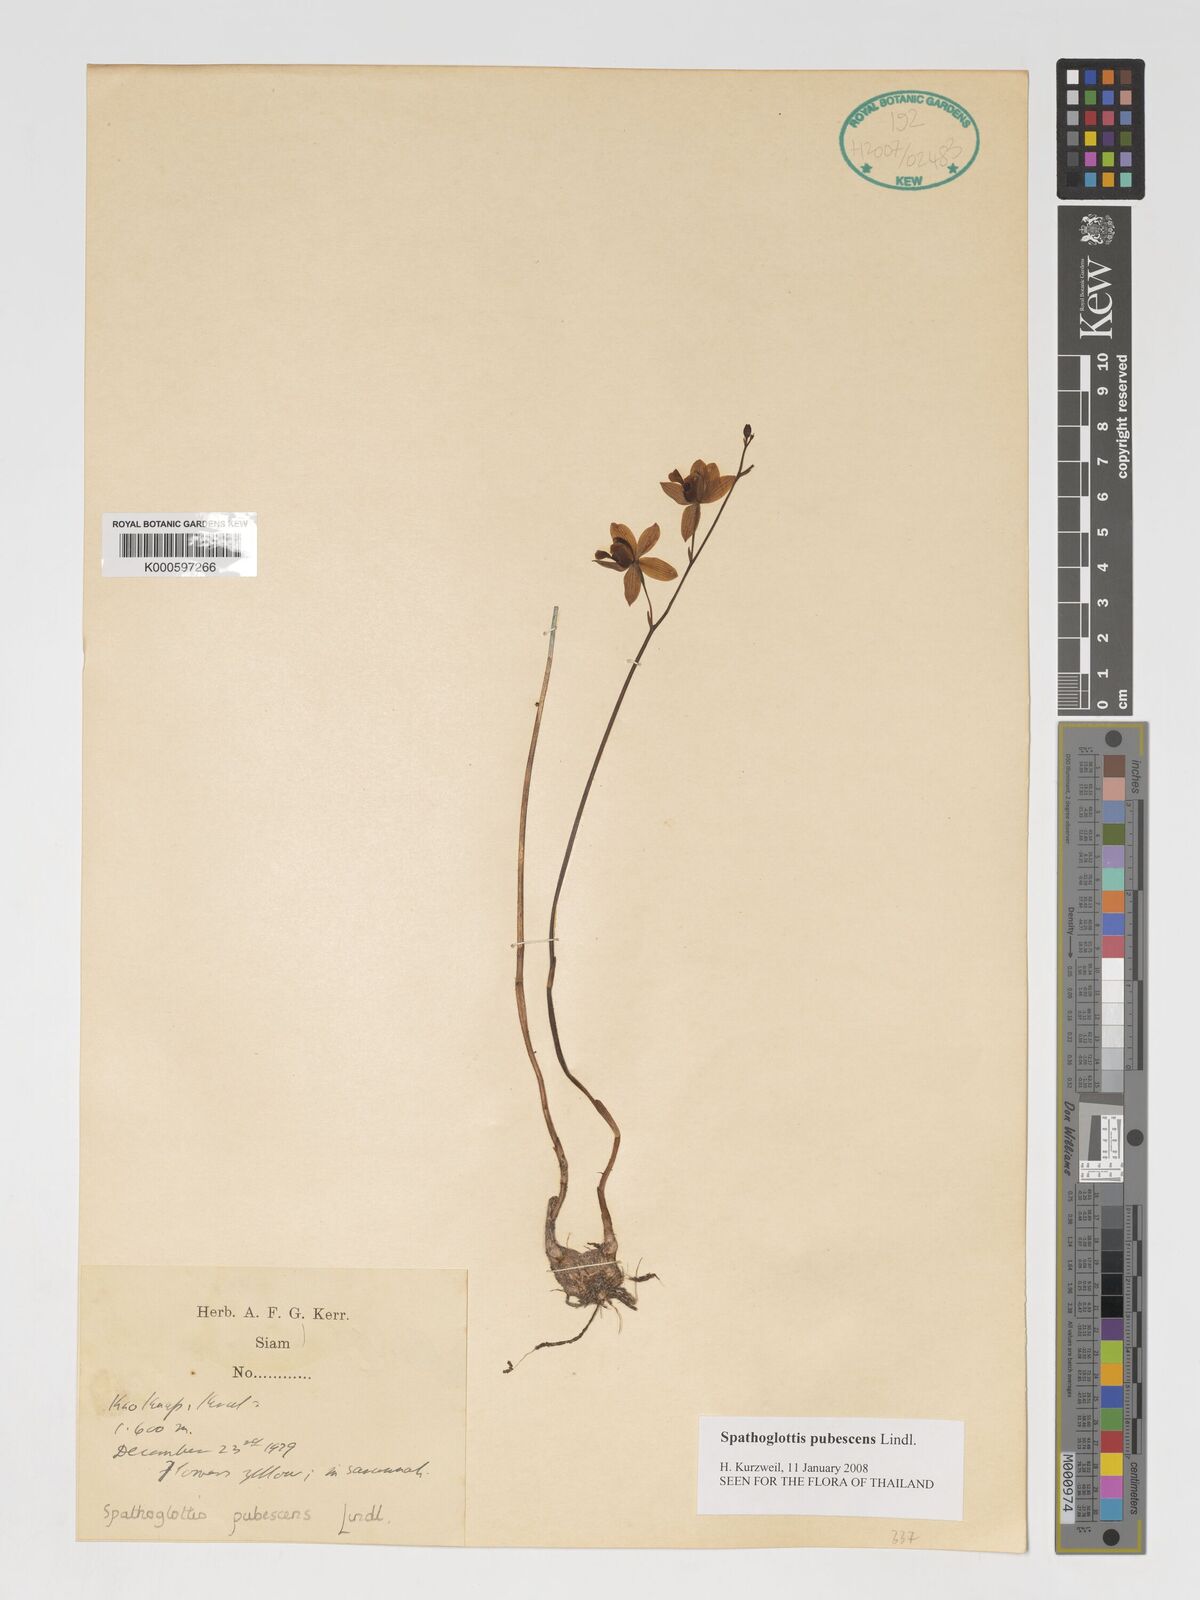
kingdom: Plantae
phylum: Tracheophyta
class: Liliopsida
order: Asparagales
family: Orchidaceae
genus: Spathoglottis
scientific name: Spathoglottis pubescens
